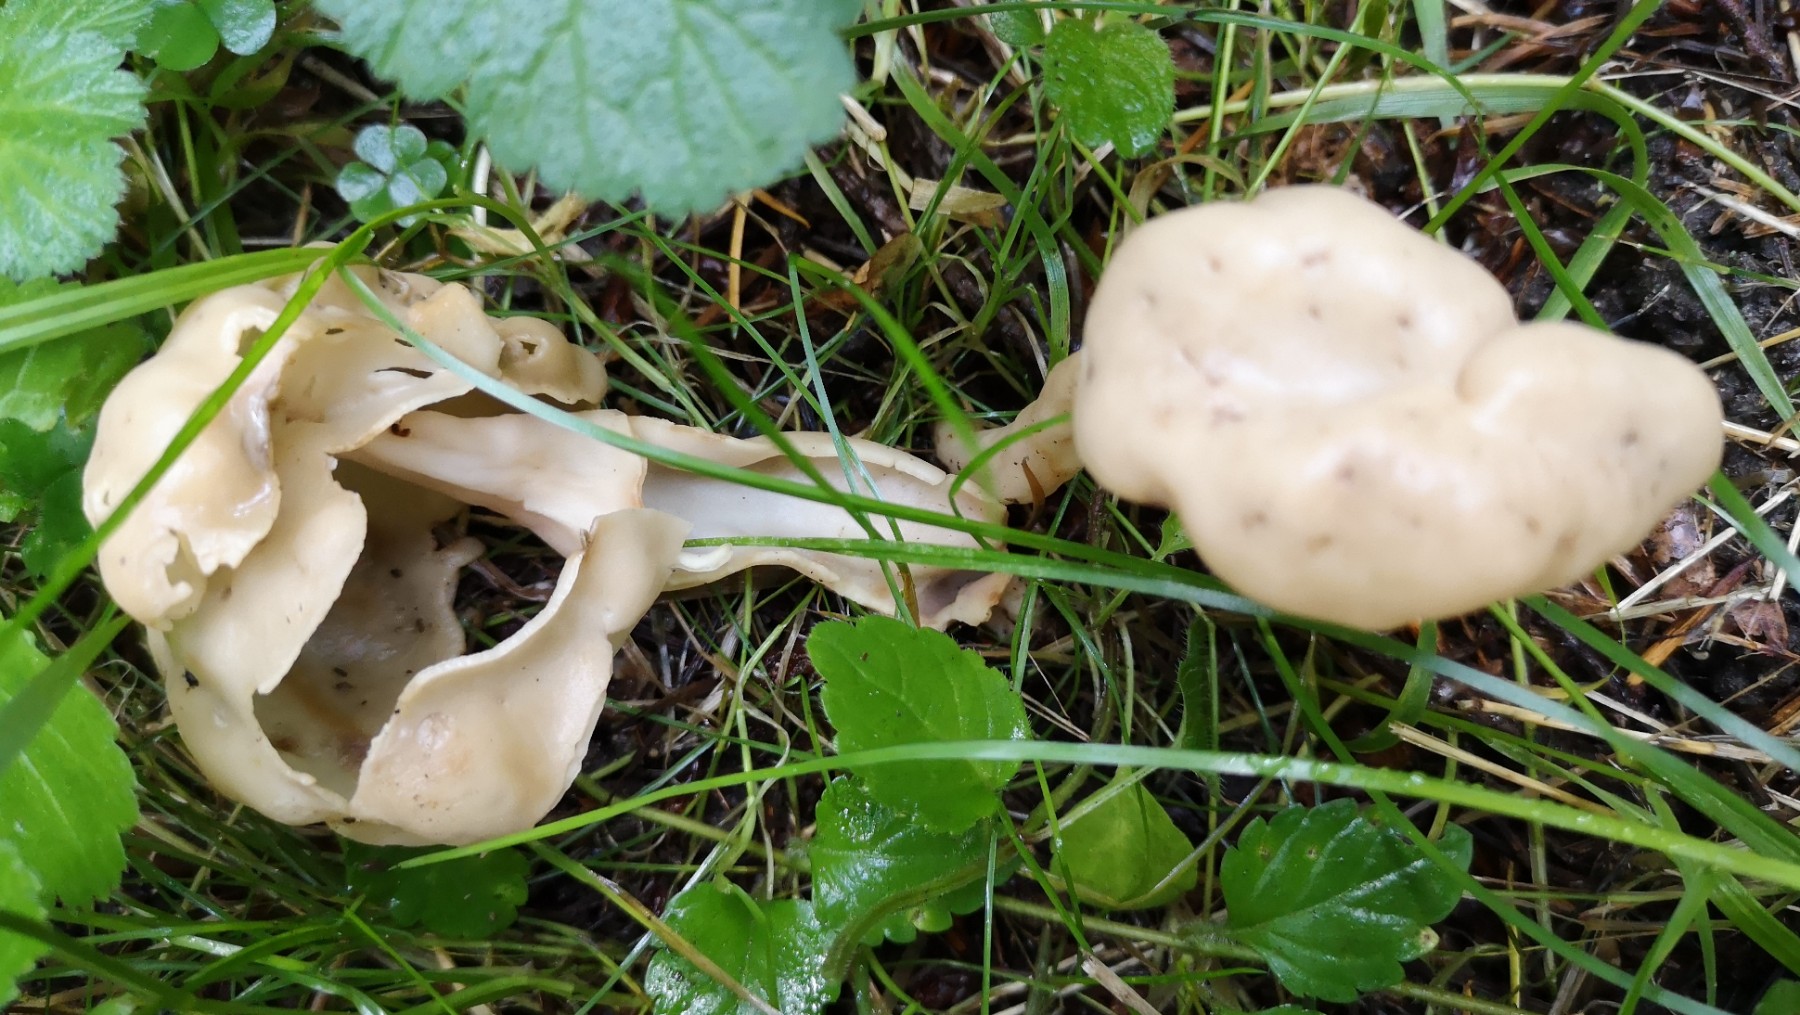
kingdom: Fungi
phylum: Ascomycota
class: Pezizomycetes
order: Pezizales
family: Helvellaceae
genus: Helvella
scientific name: Helvella elastica
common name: elastik-foldhat
